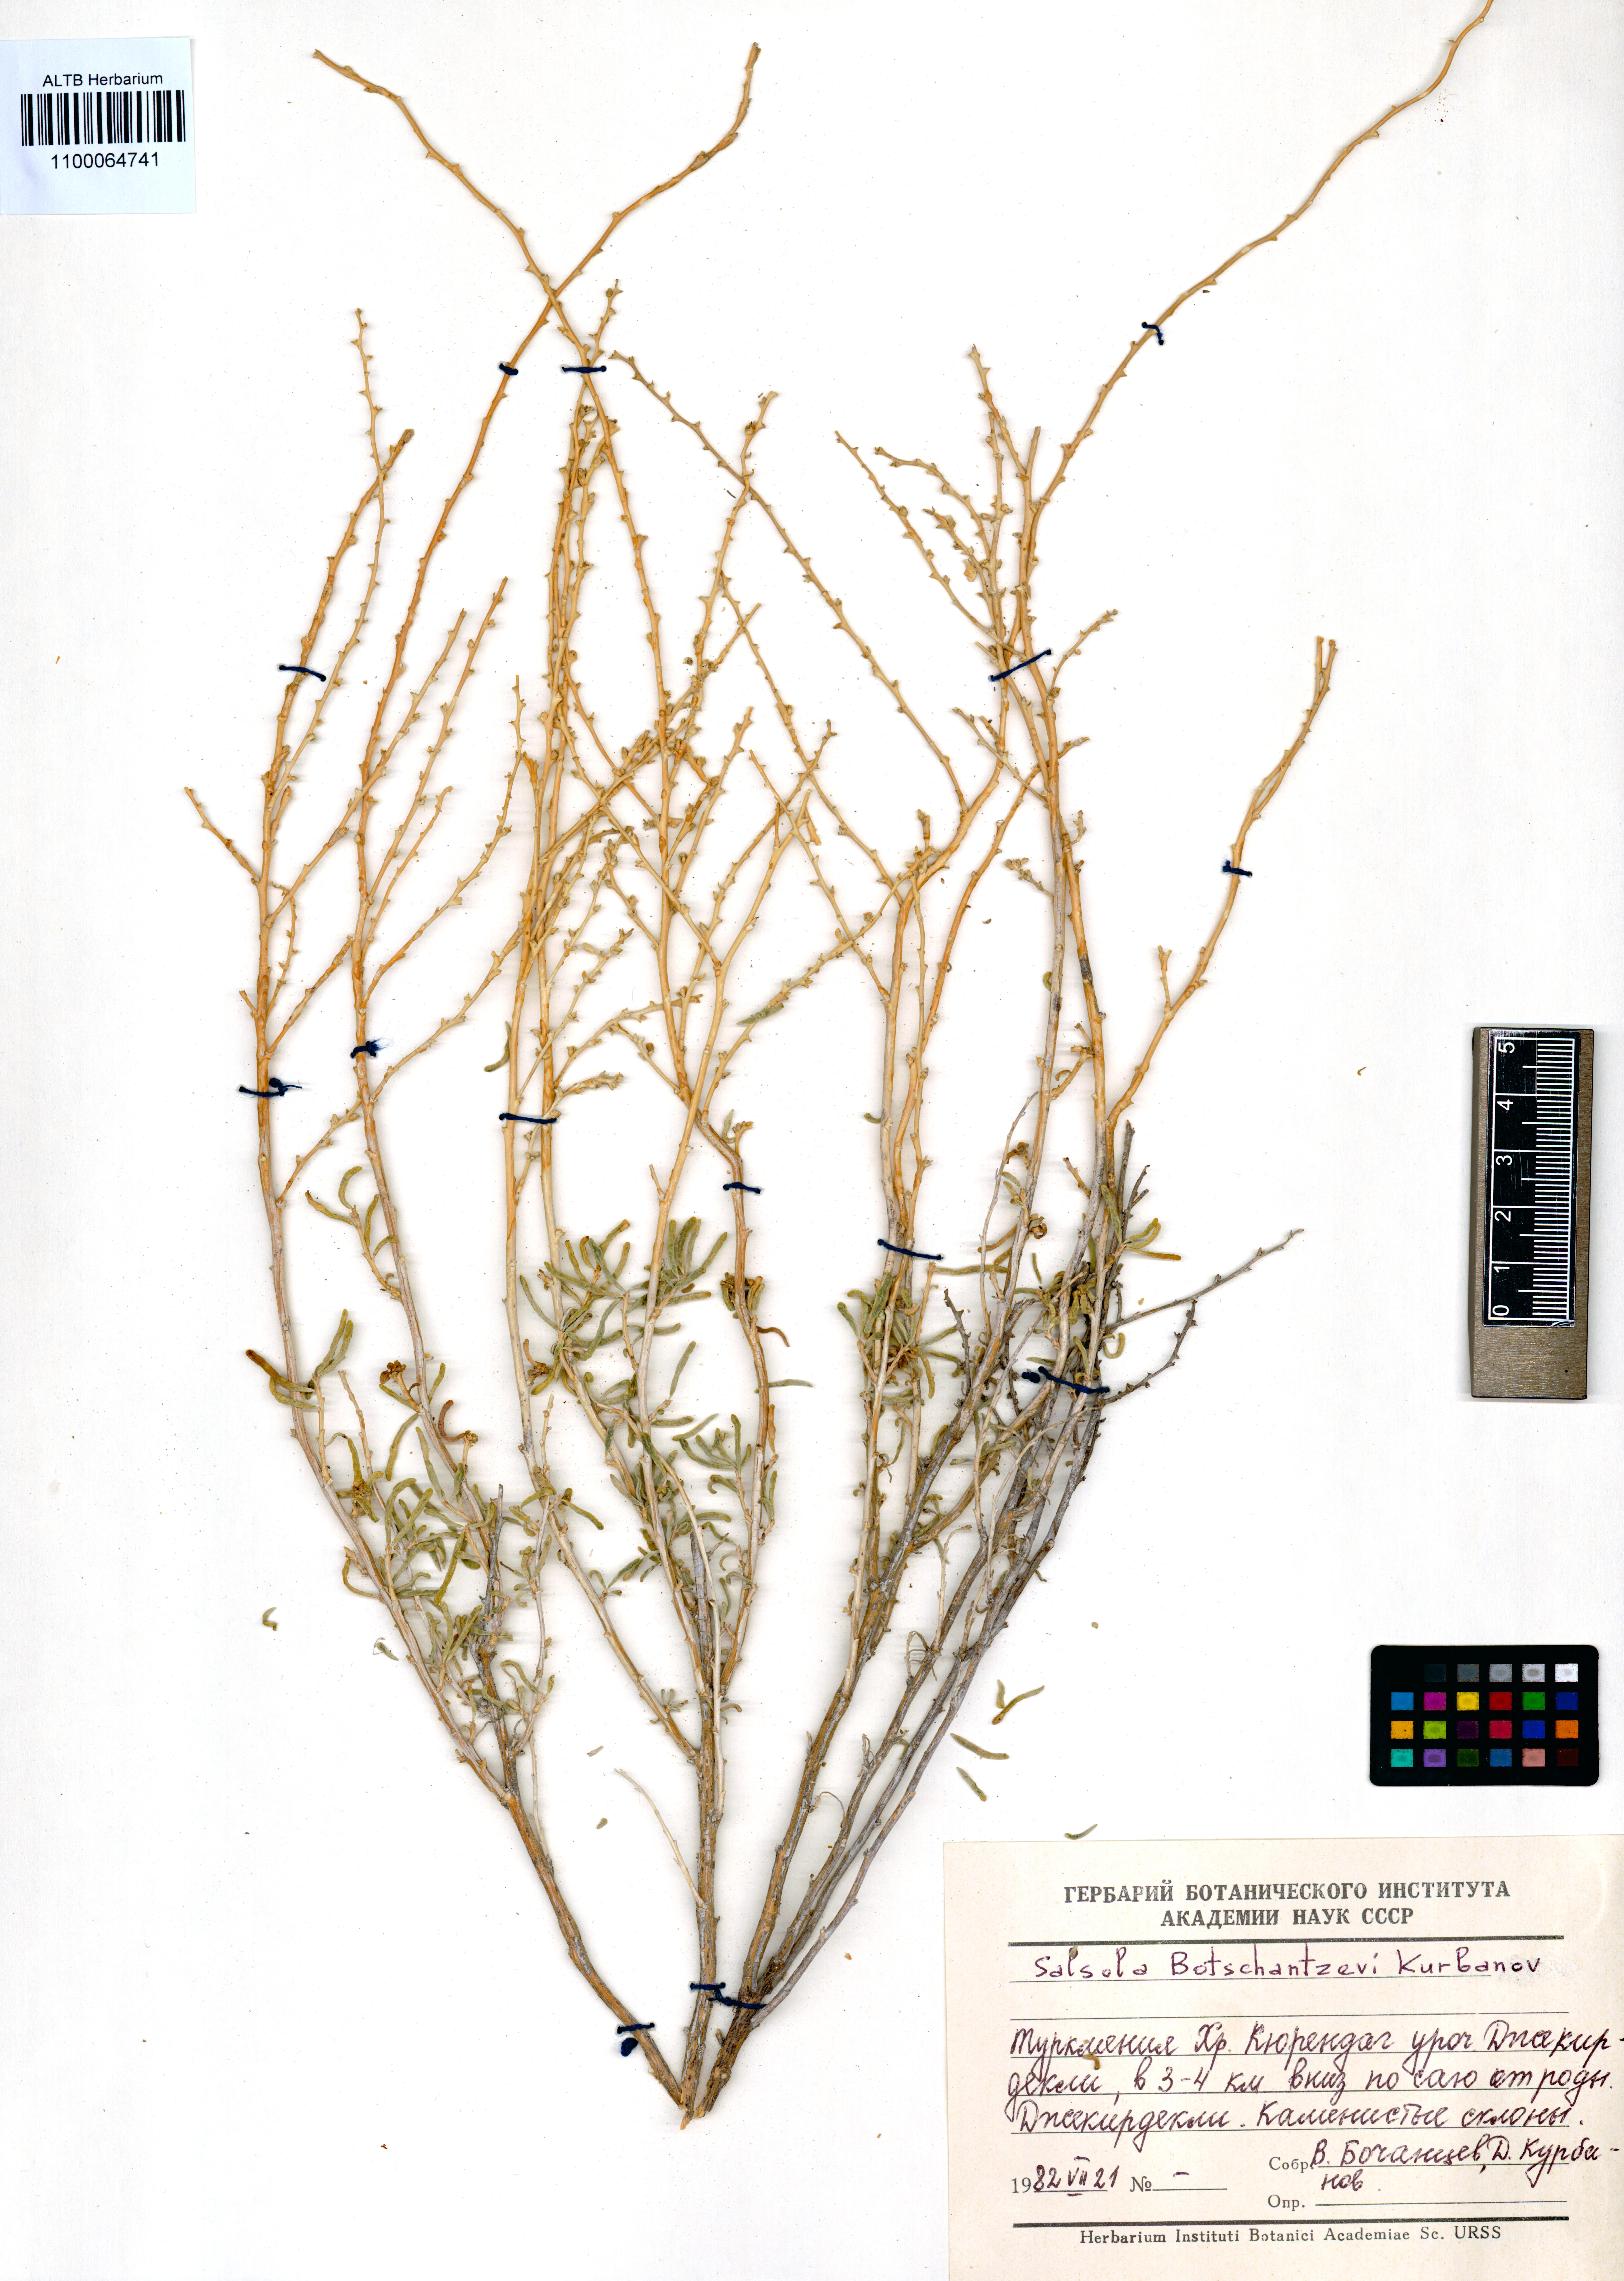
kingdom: Plantae
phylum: Tracheophyta
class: Magnoliopsida
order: Caryophyllales
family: Amaranthaceae
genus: Oreosalsola
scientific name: Oreosalsola botschantzevii
